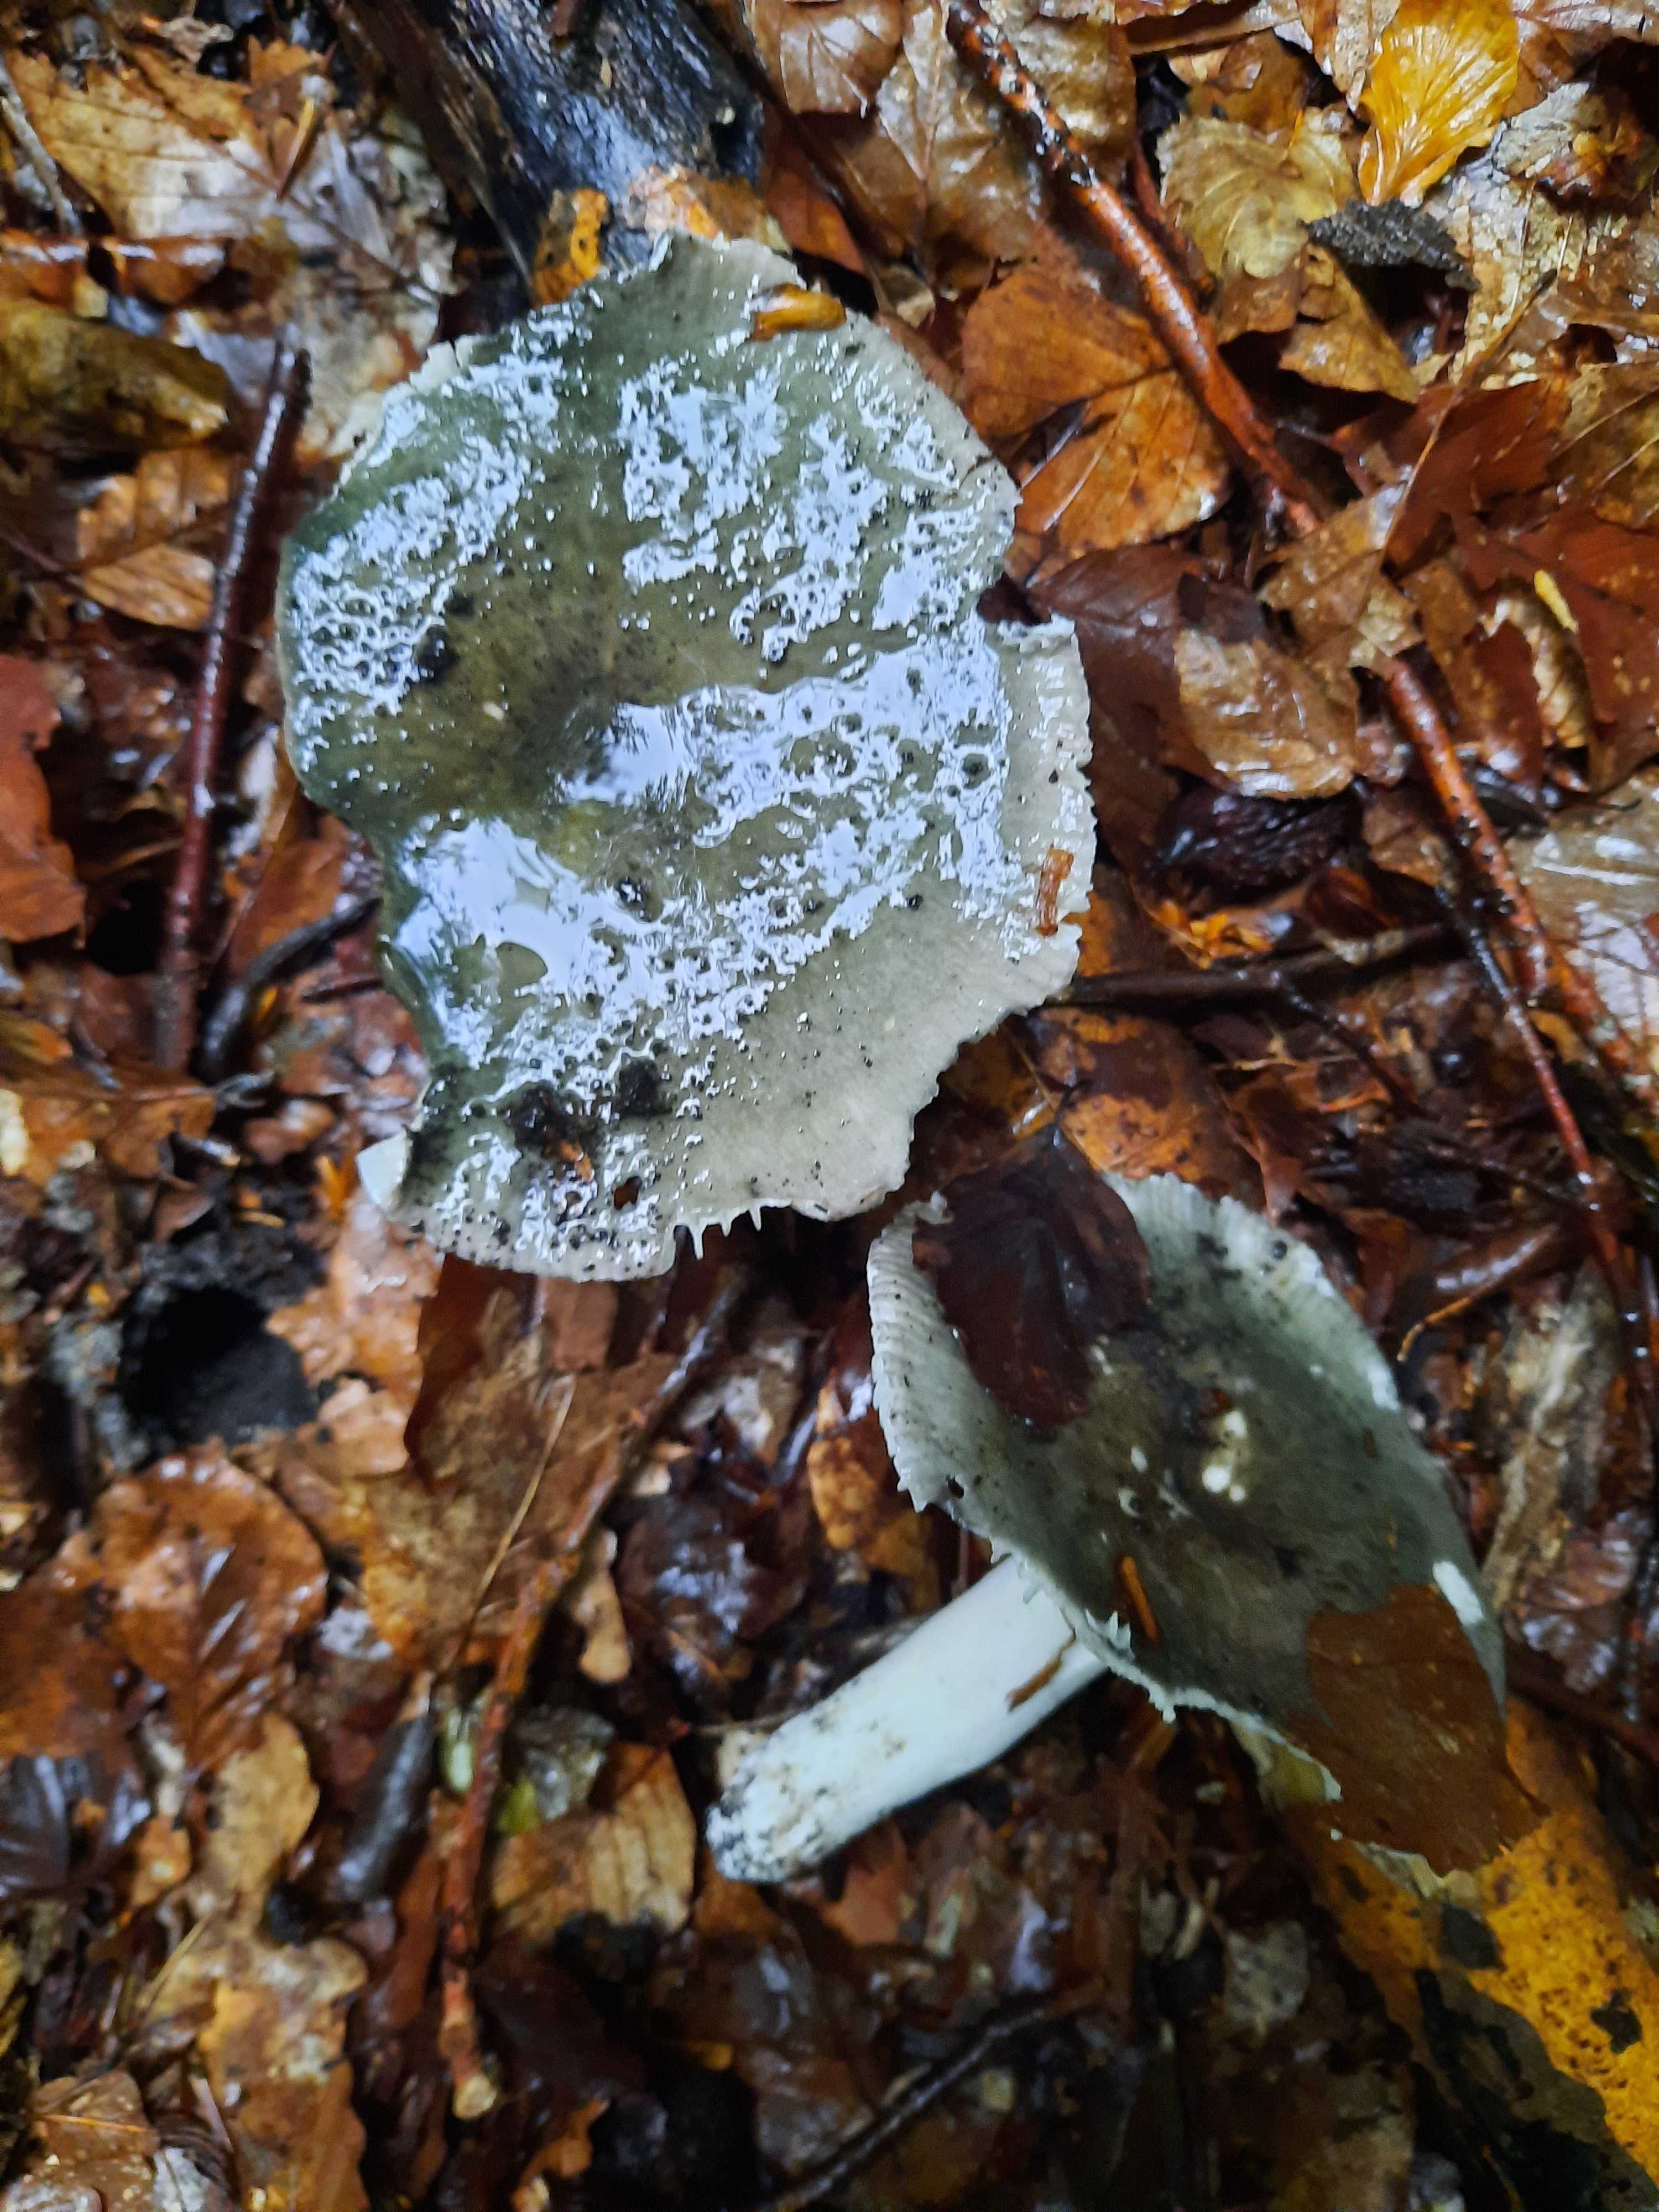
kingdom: Fungi
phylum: Basidiomycota
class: Agaricomycetes
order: Russulales
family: Russulaceae
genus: Russula
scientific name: Russula cyanoxantha
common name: broget skørhat
